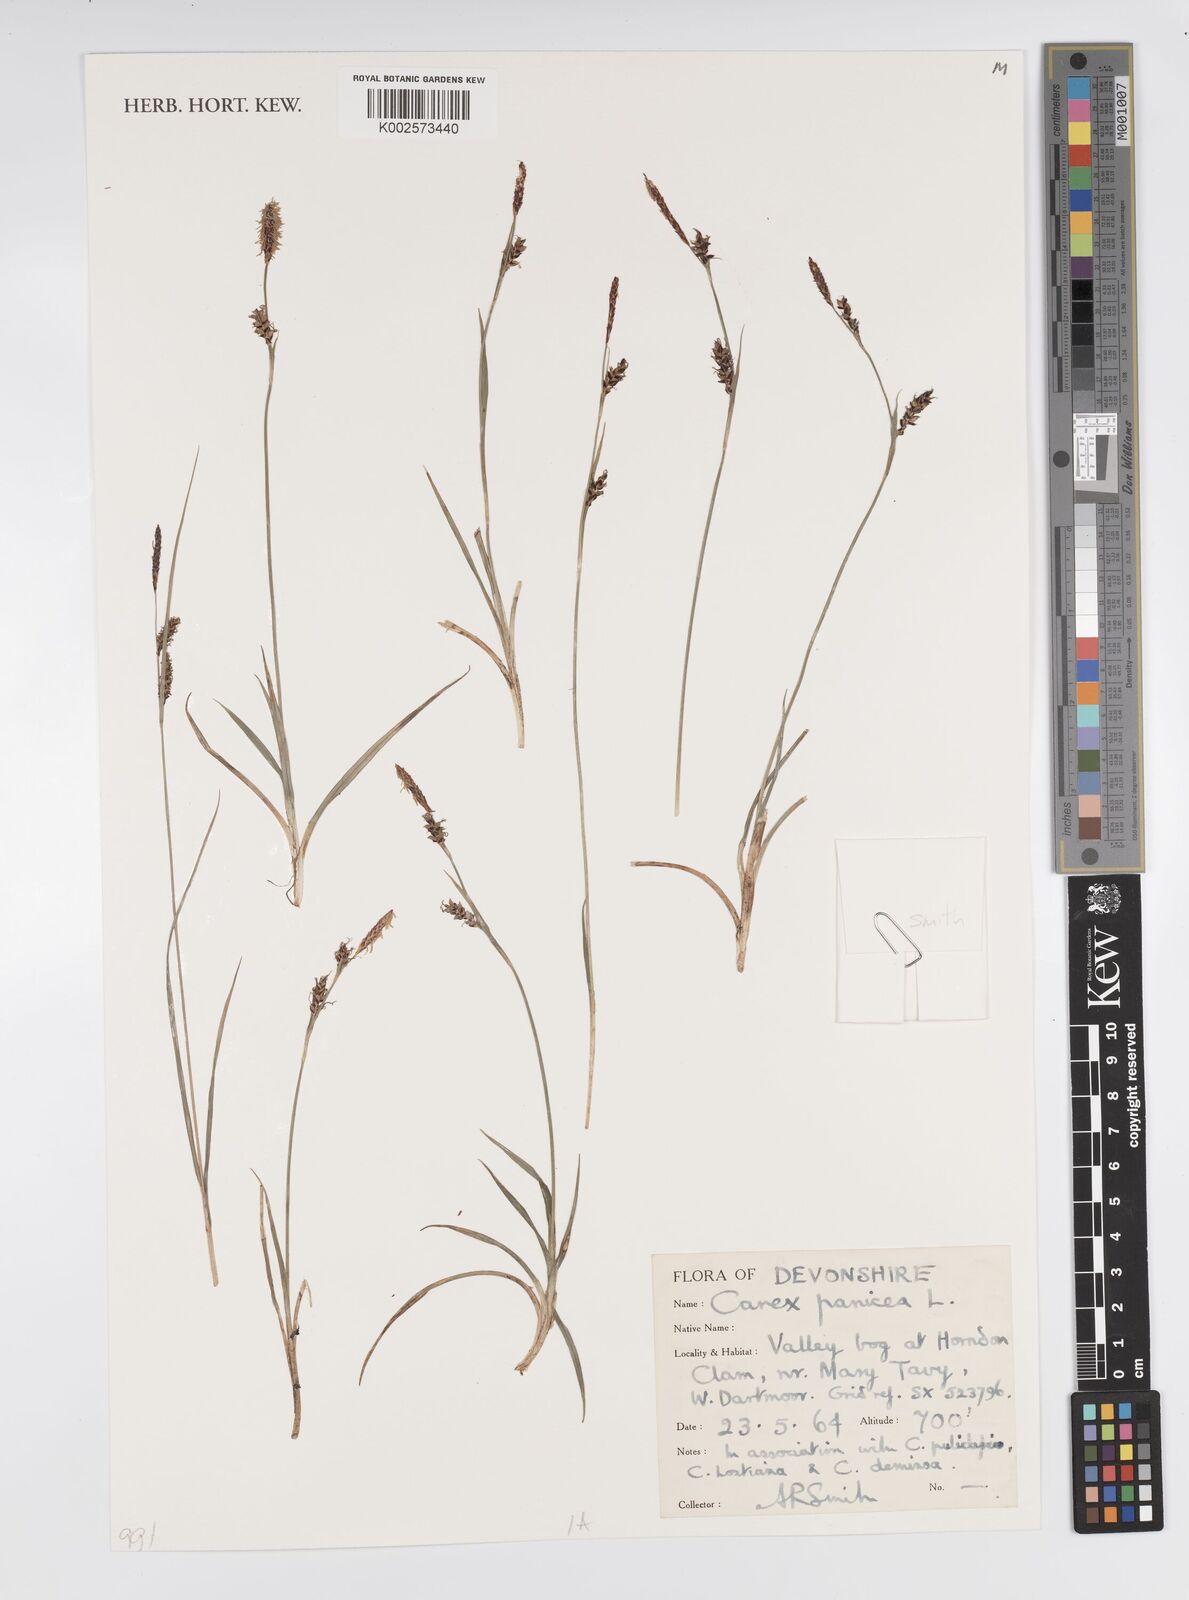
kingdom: Plantae
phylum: Tracheophyta
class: Liliopsida
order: Poales
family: Cyperaceae
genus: Carex
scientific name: Carex panicea
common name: Carnation sedge
